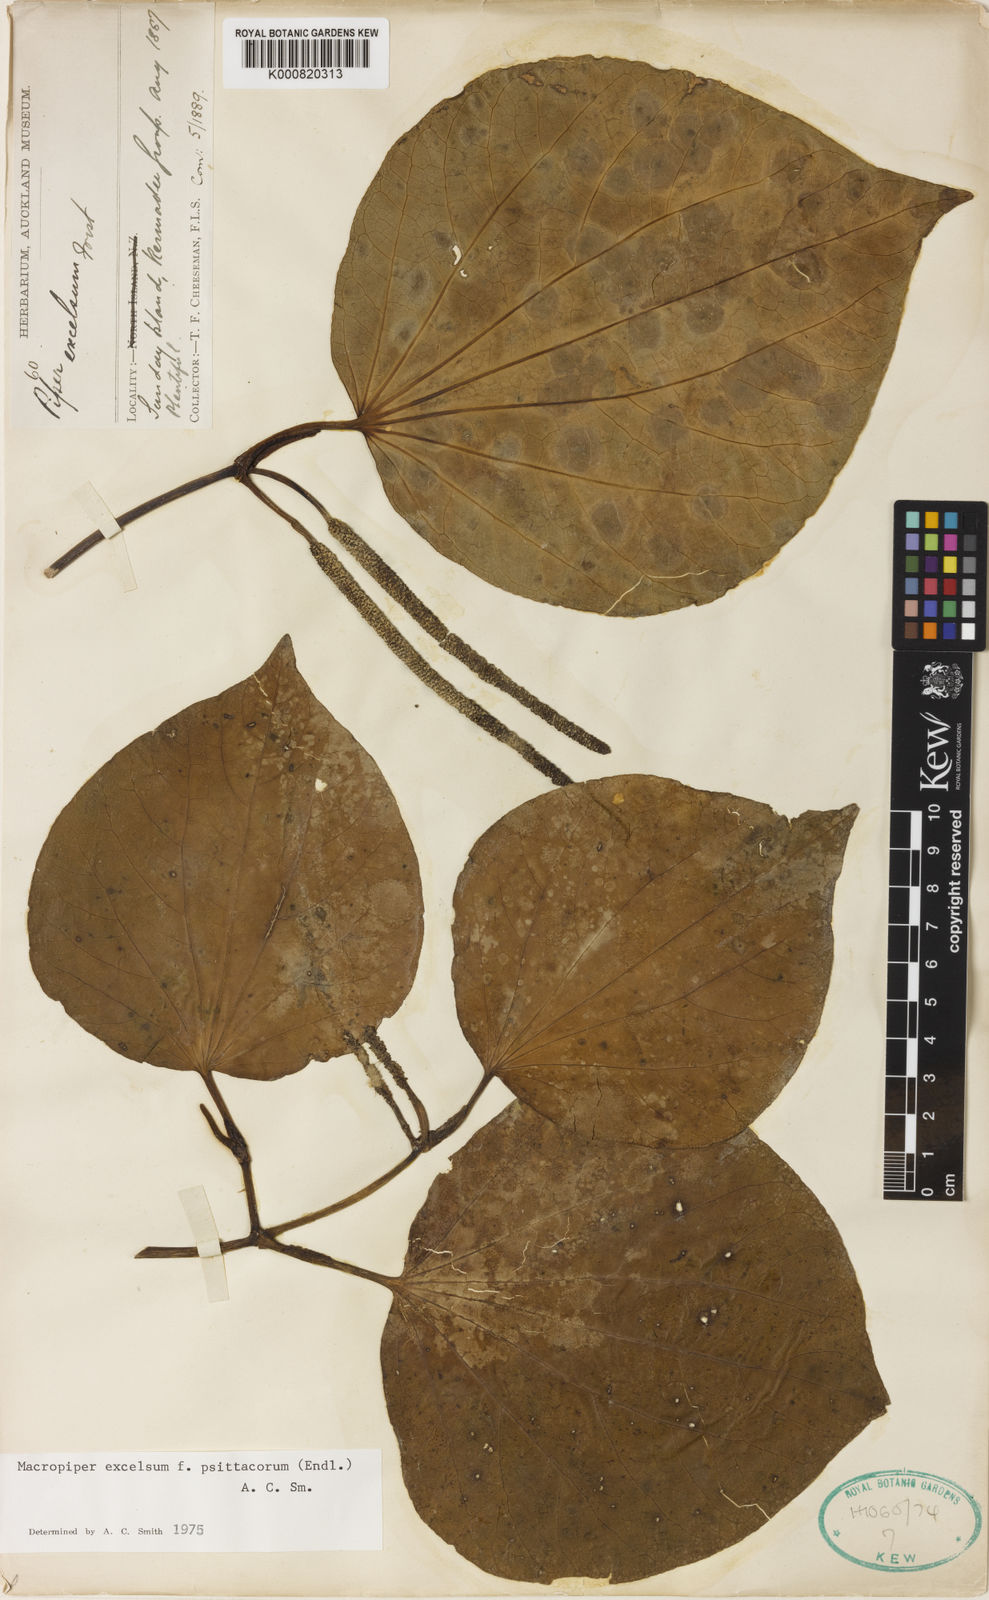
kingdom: Plantae
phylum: Tracheophyta
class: Magnoliopsida
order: Piperales
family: Piperaceae
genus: Macropiper
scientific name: Macropiper excelsum
